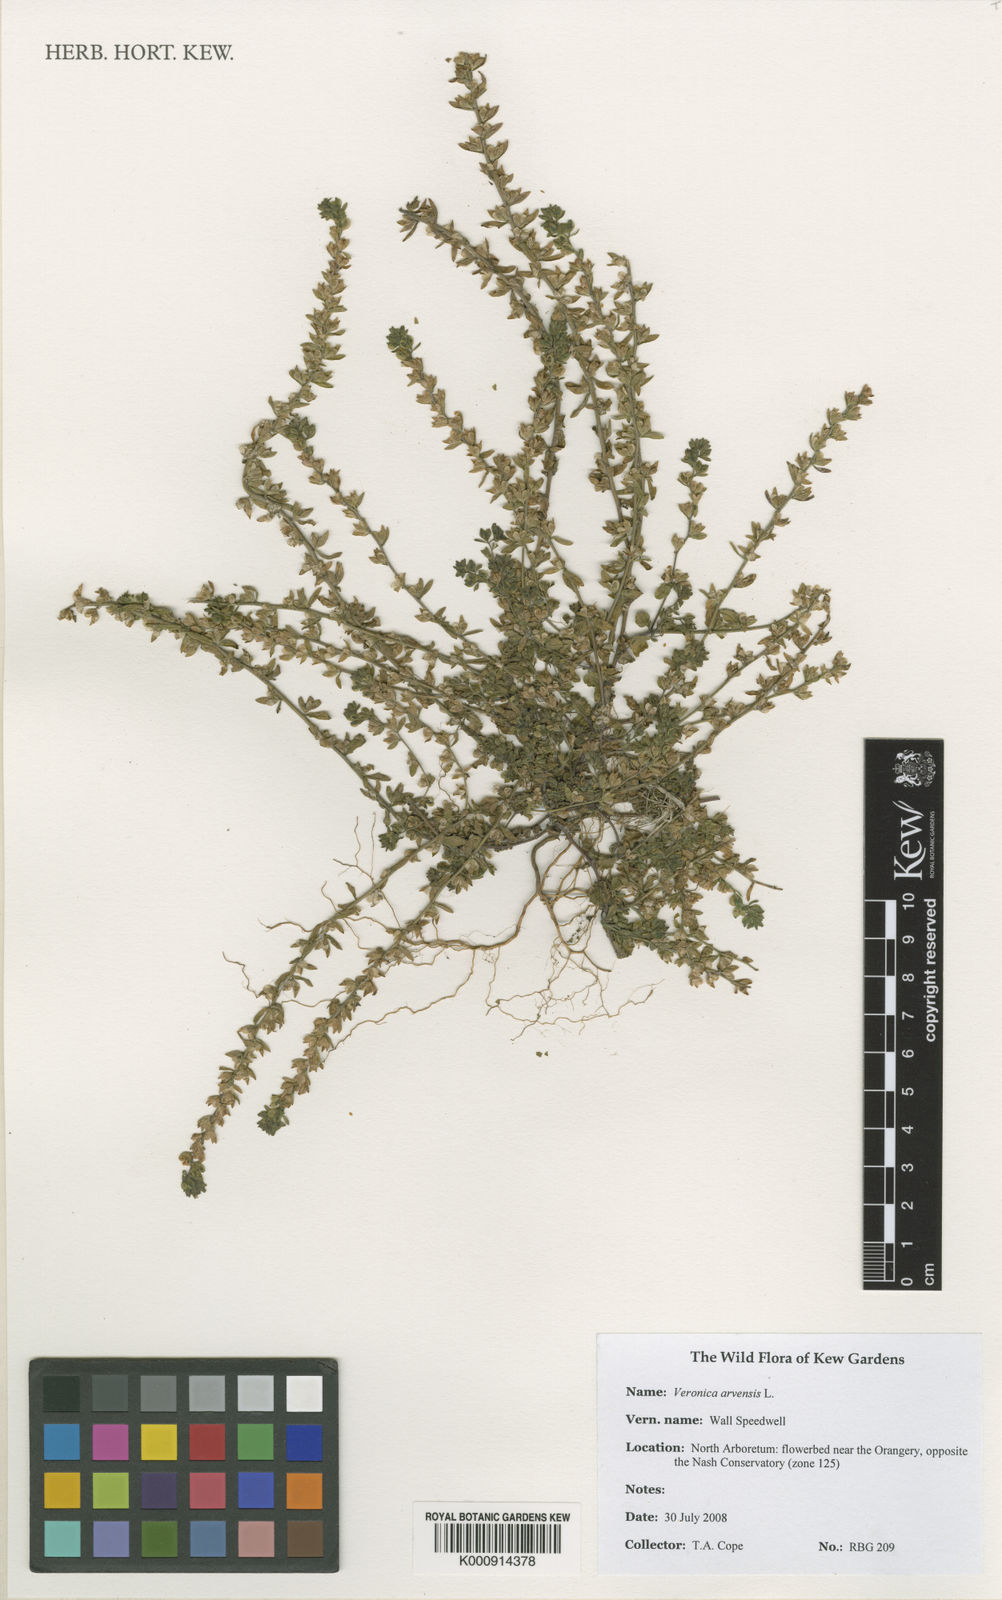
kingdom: Plantae
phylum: Tracheophyta
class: Magnoliopsida
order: Lamiales
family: Plantaginaceae
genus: Veronica
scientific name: Veronica arvensis
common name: Corn speedwell
